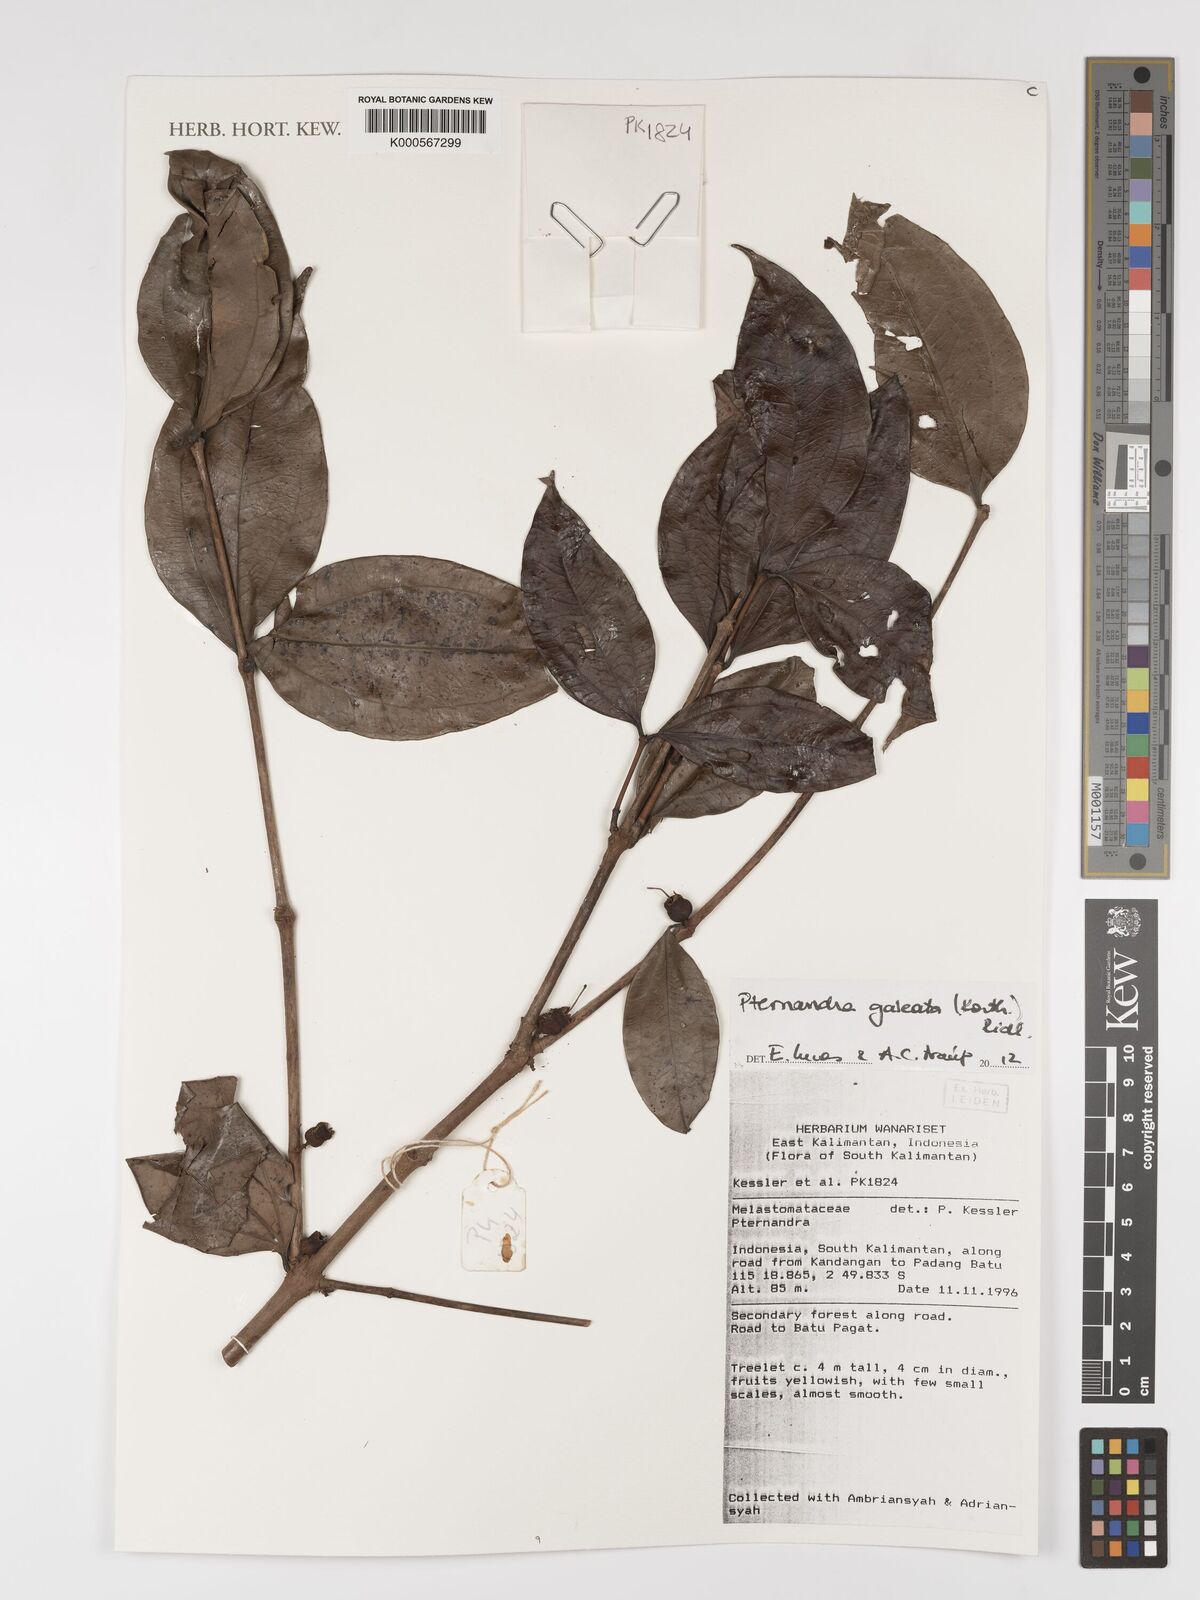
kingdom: Plantae
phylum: Tracheophyta
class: Magnoliopsida
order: Myrtales
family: Melastomataceae
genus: Pternandra
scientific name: Pternandra galeata
